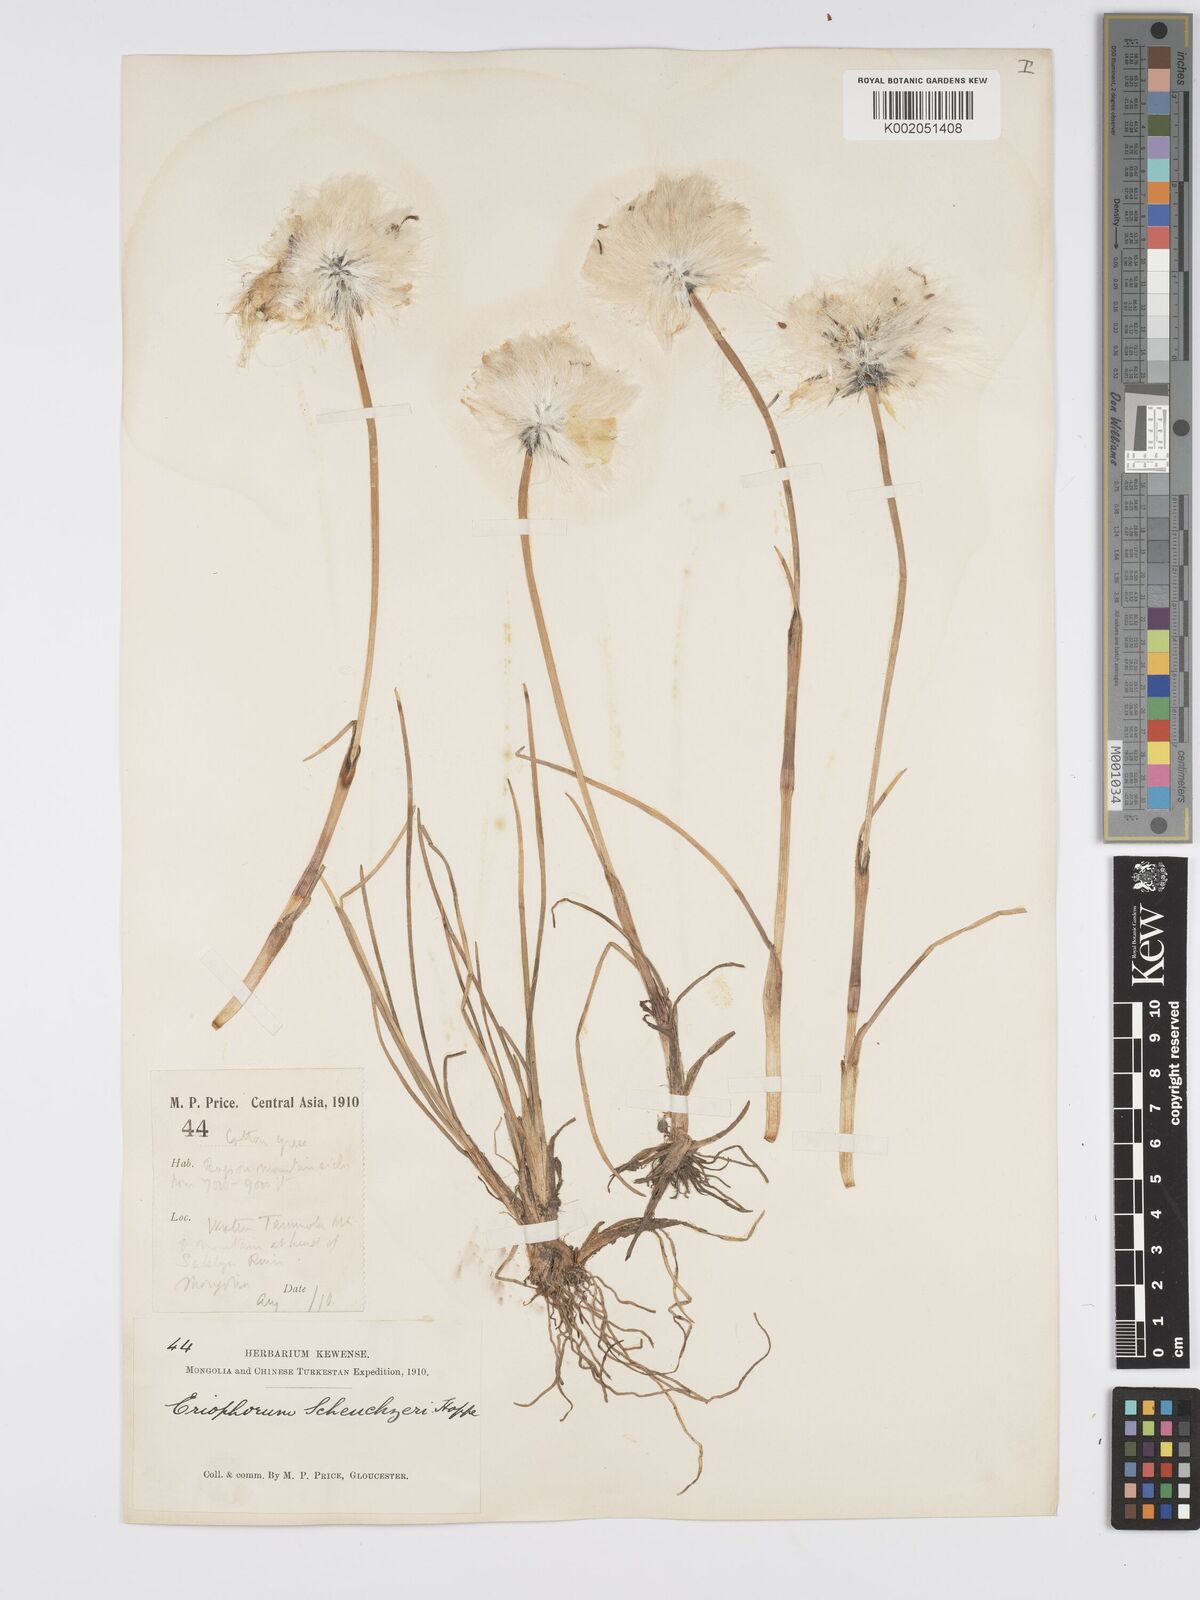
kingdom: Plantae
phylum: Tracheophyta
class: Liliopsida
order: Poales
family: Cyperaceae
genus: Eriophorum
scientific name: Eriophorum scheuchzeri
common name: Scheuchzer's cottongrass
